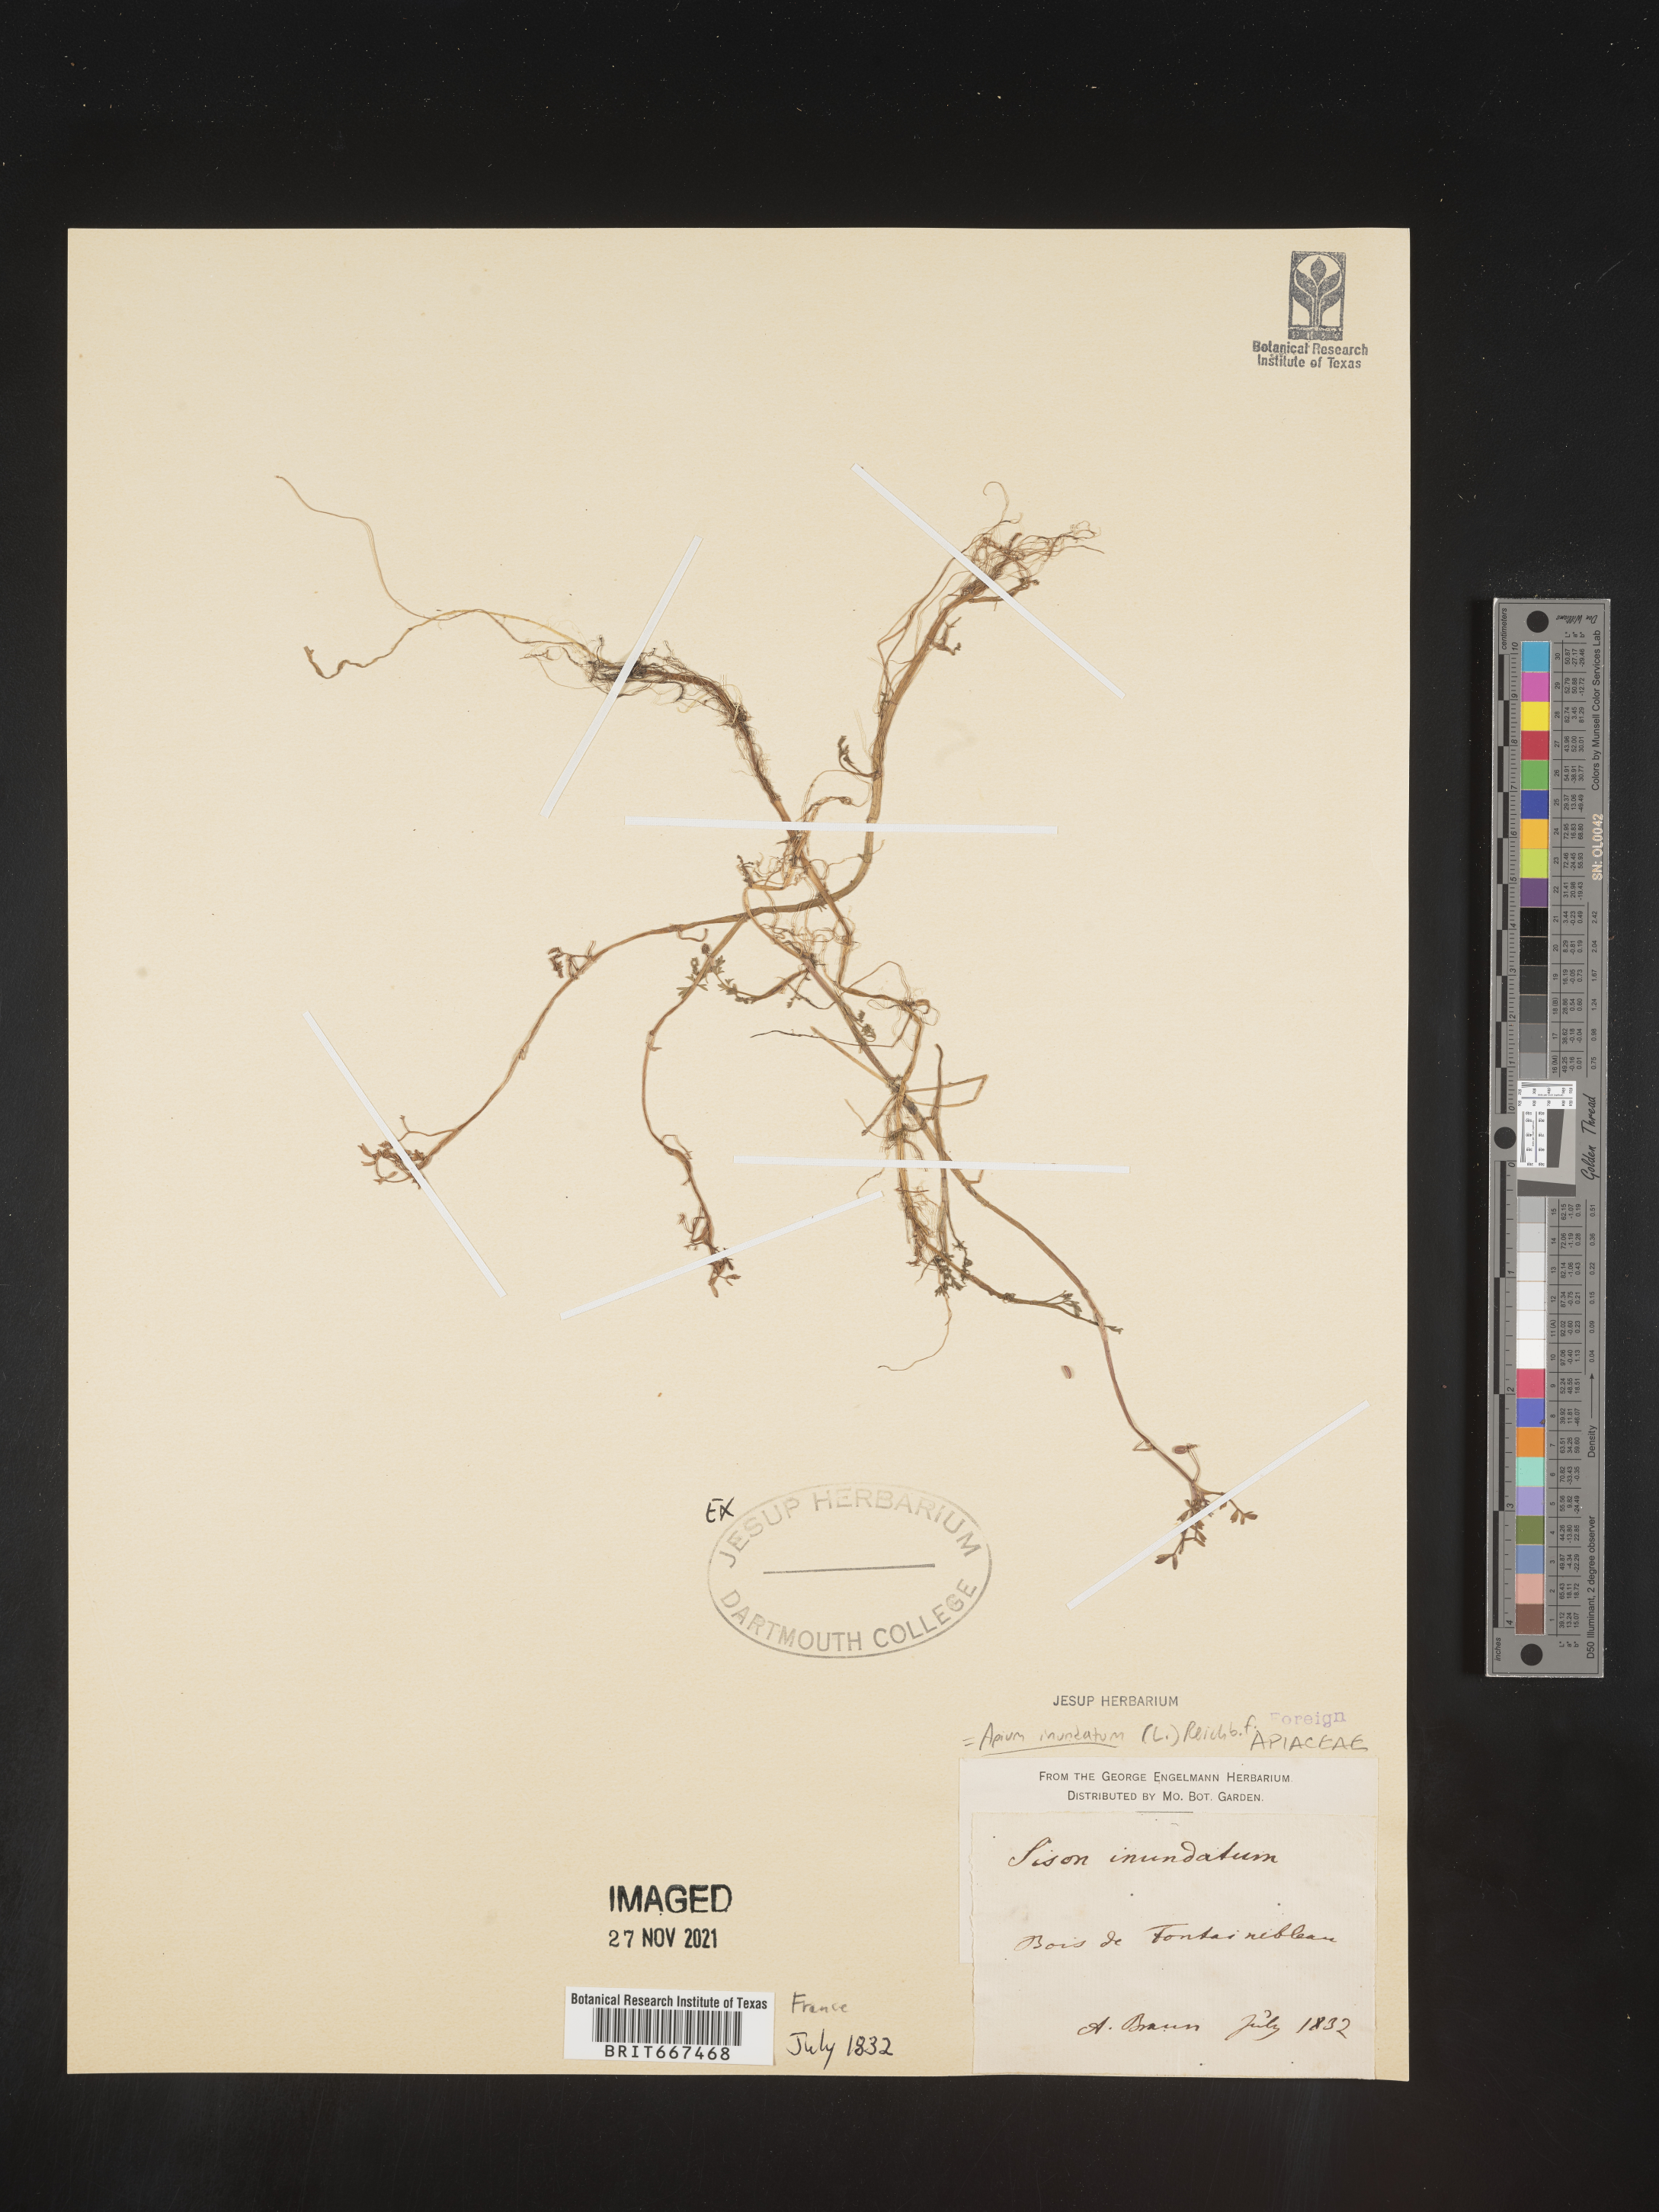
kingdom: Plantae
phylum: Tracheophyta
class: Magnoliopsida
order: Apiales
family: Apiaceae
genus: Apium
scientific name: Apium
